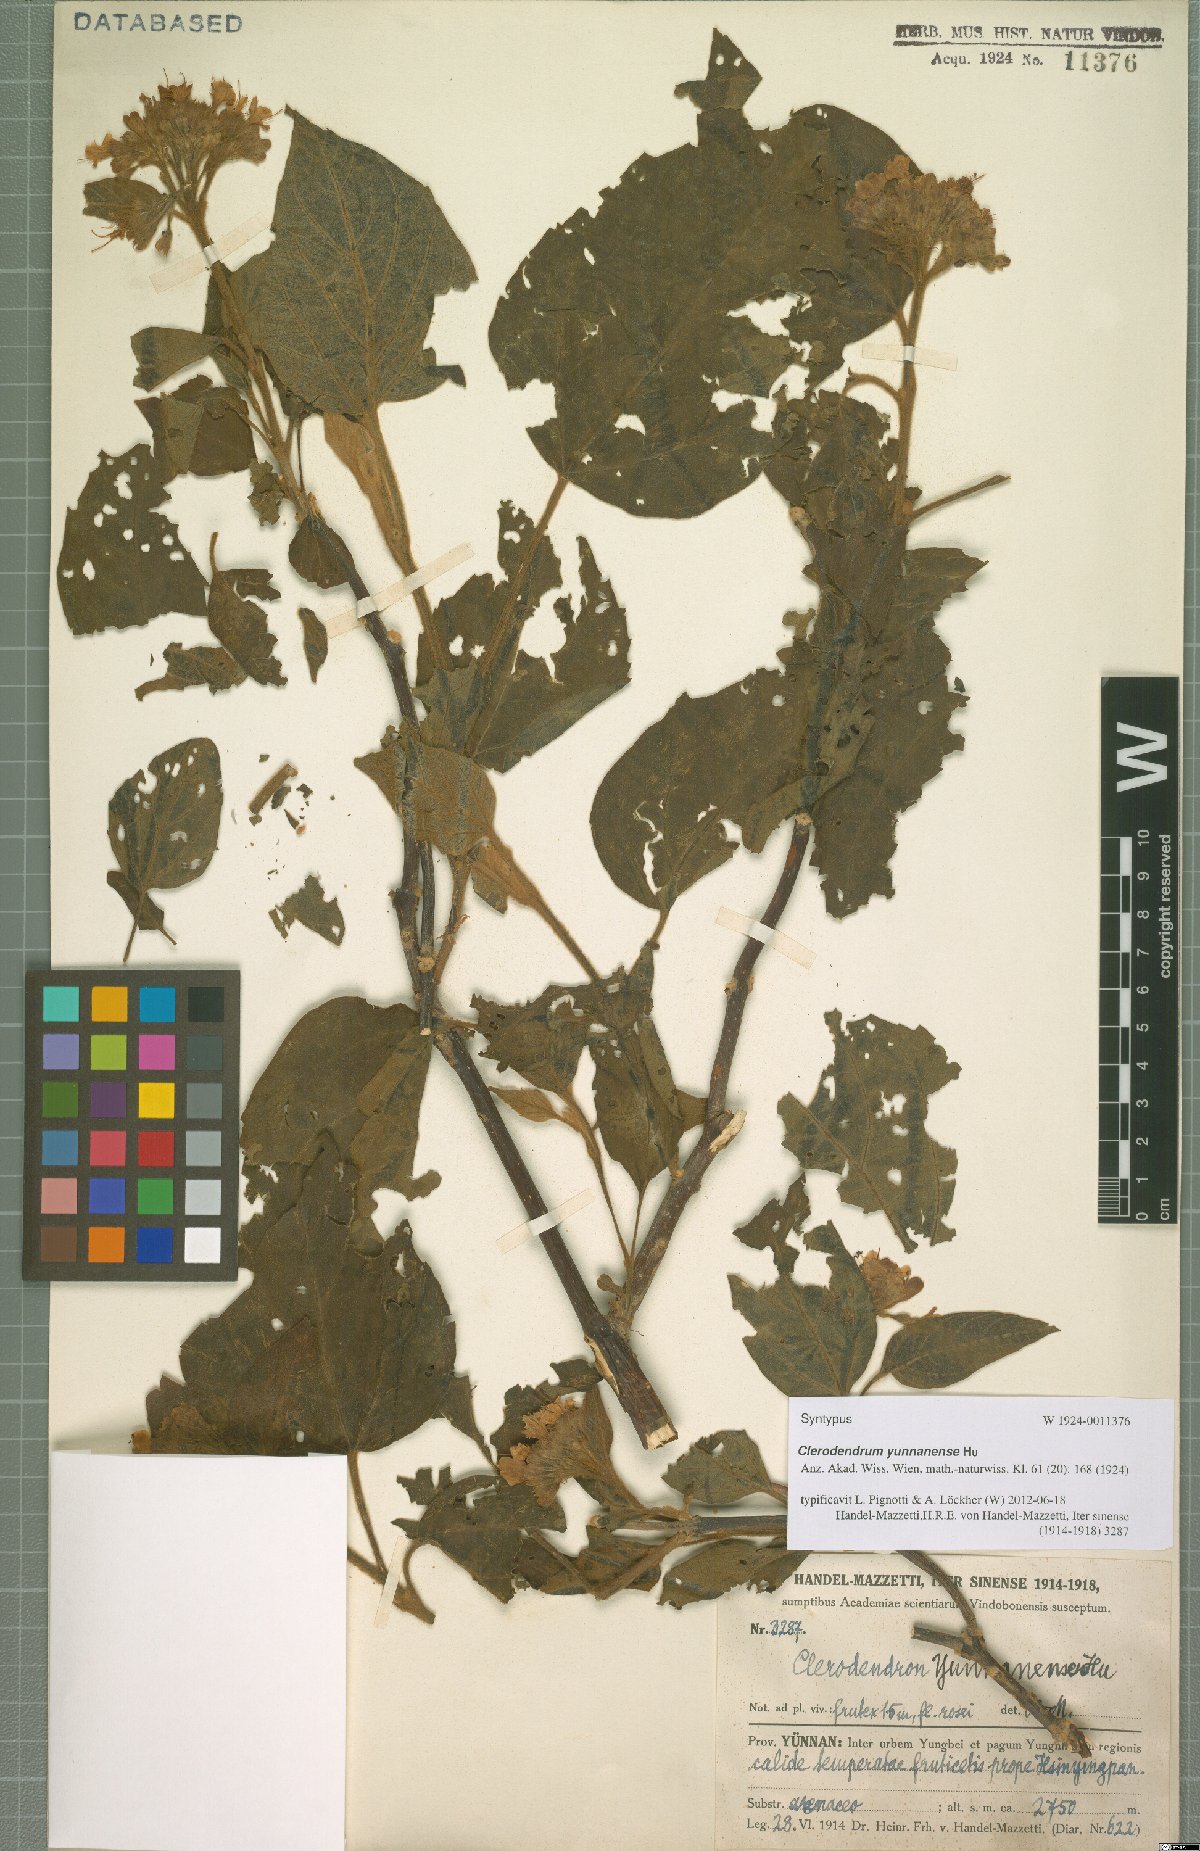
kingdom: Plantae
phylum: Tracheophyta
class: Magnoliopsida
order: Lamiales
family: Lamiaceae
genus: Clerodendrum
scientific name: Clerodendrum yunnanense
